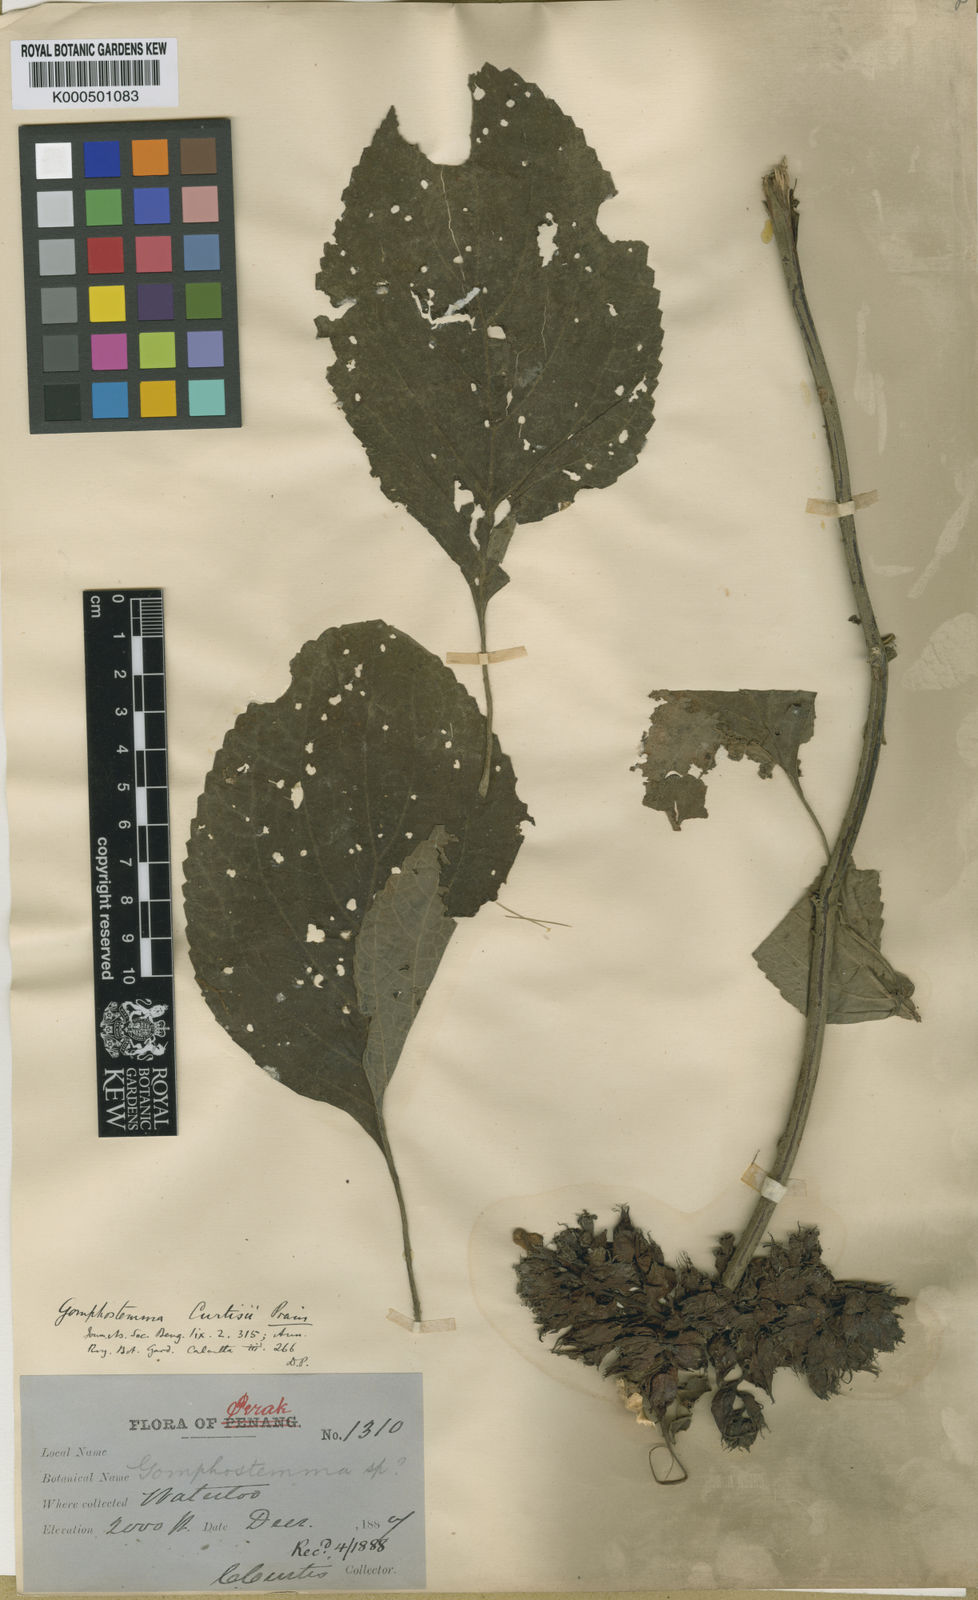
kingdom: Plantae
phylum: Tracheophyta
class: Magnoliopsida
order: Lamiales
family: Lamiaceae
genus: Gomphostemma
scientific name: Gomphostemma curtisii
